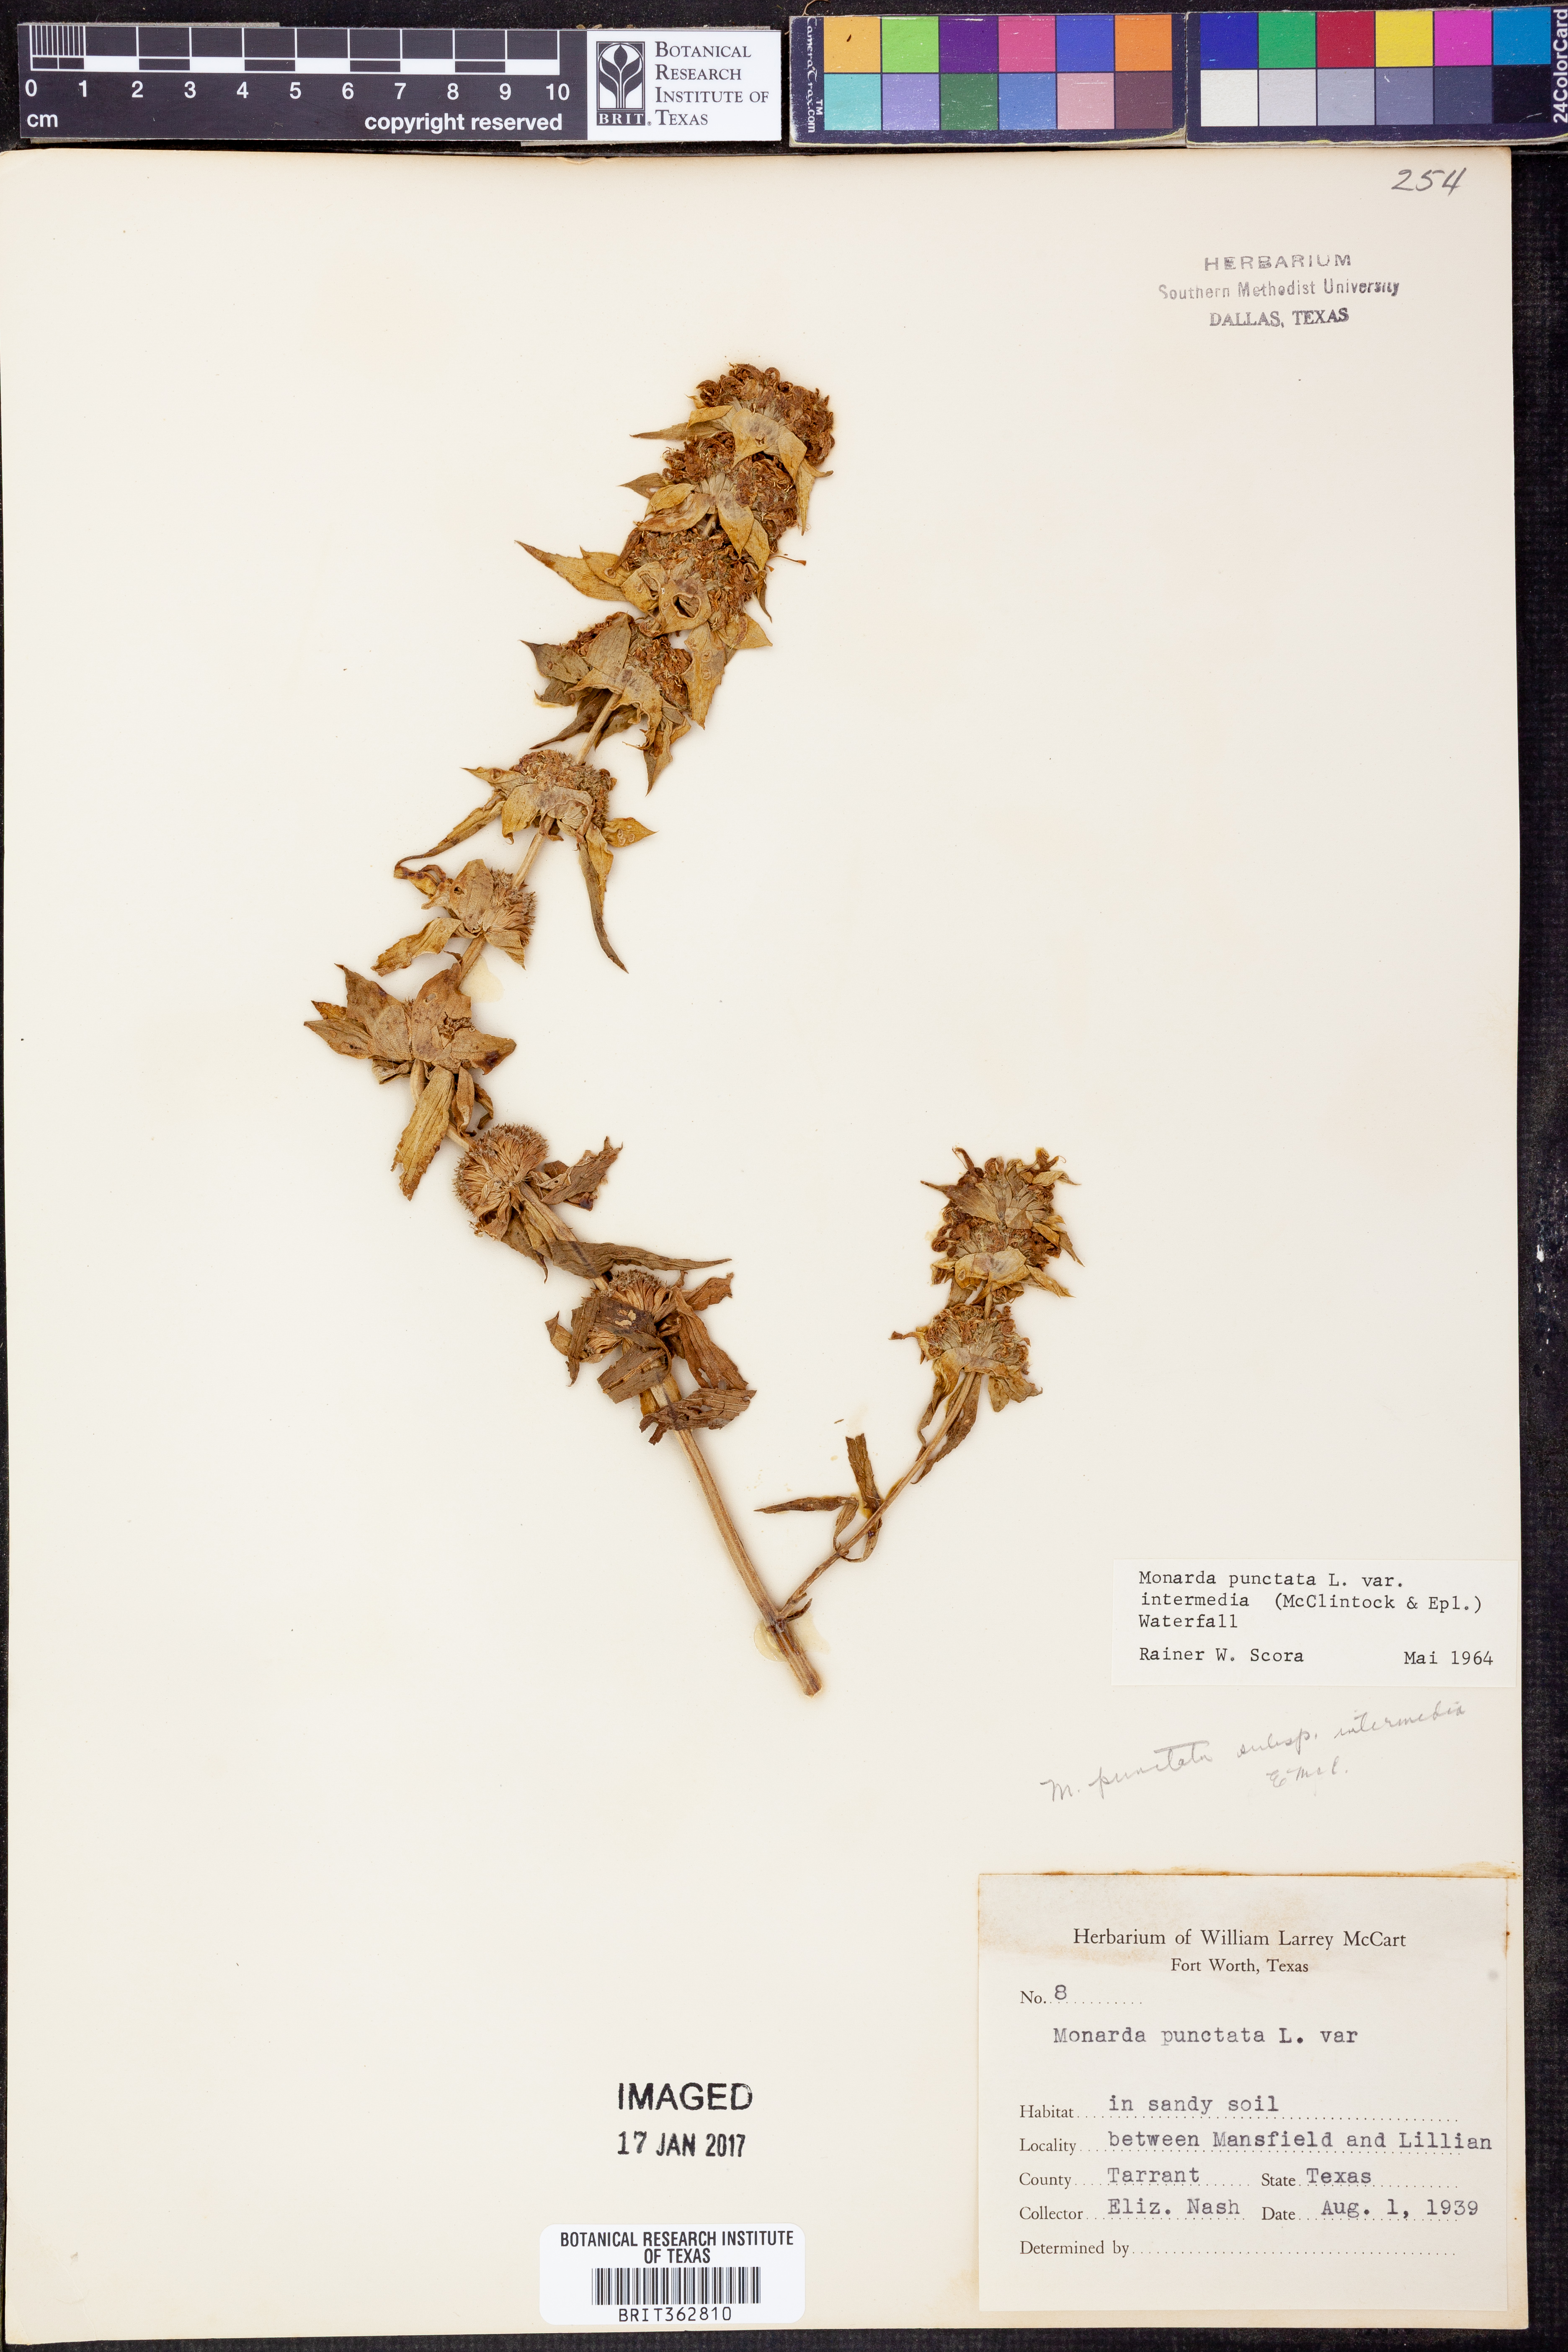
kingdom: Plantae
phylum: Tracheophyta
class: Magnoliopsida
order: Lamiales
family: Lamiaceae
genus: Monarda
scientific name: Monarda punctata
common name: Dotted monarda
